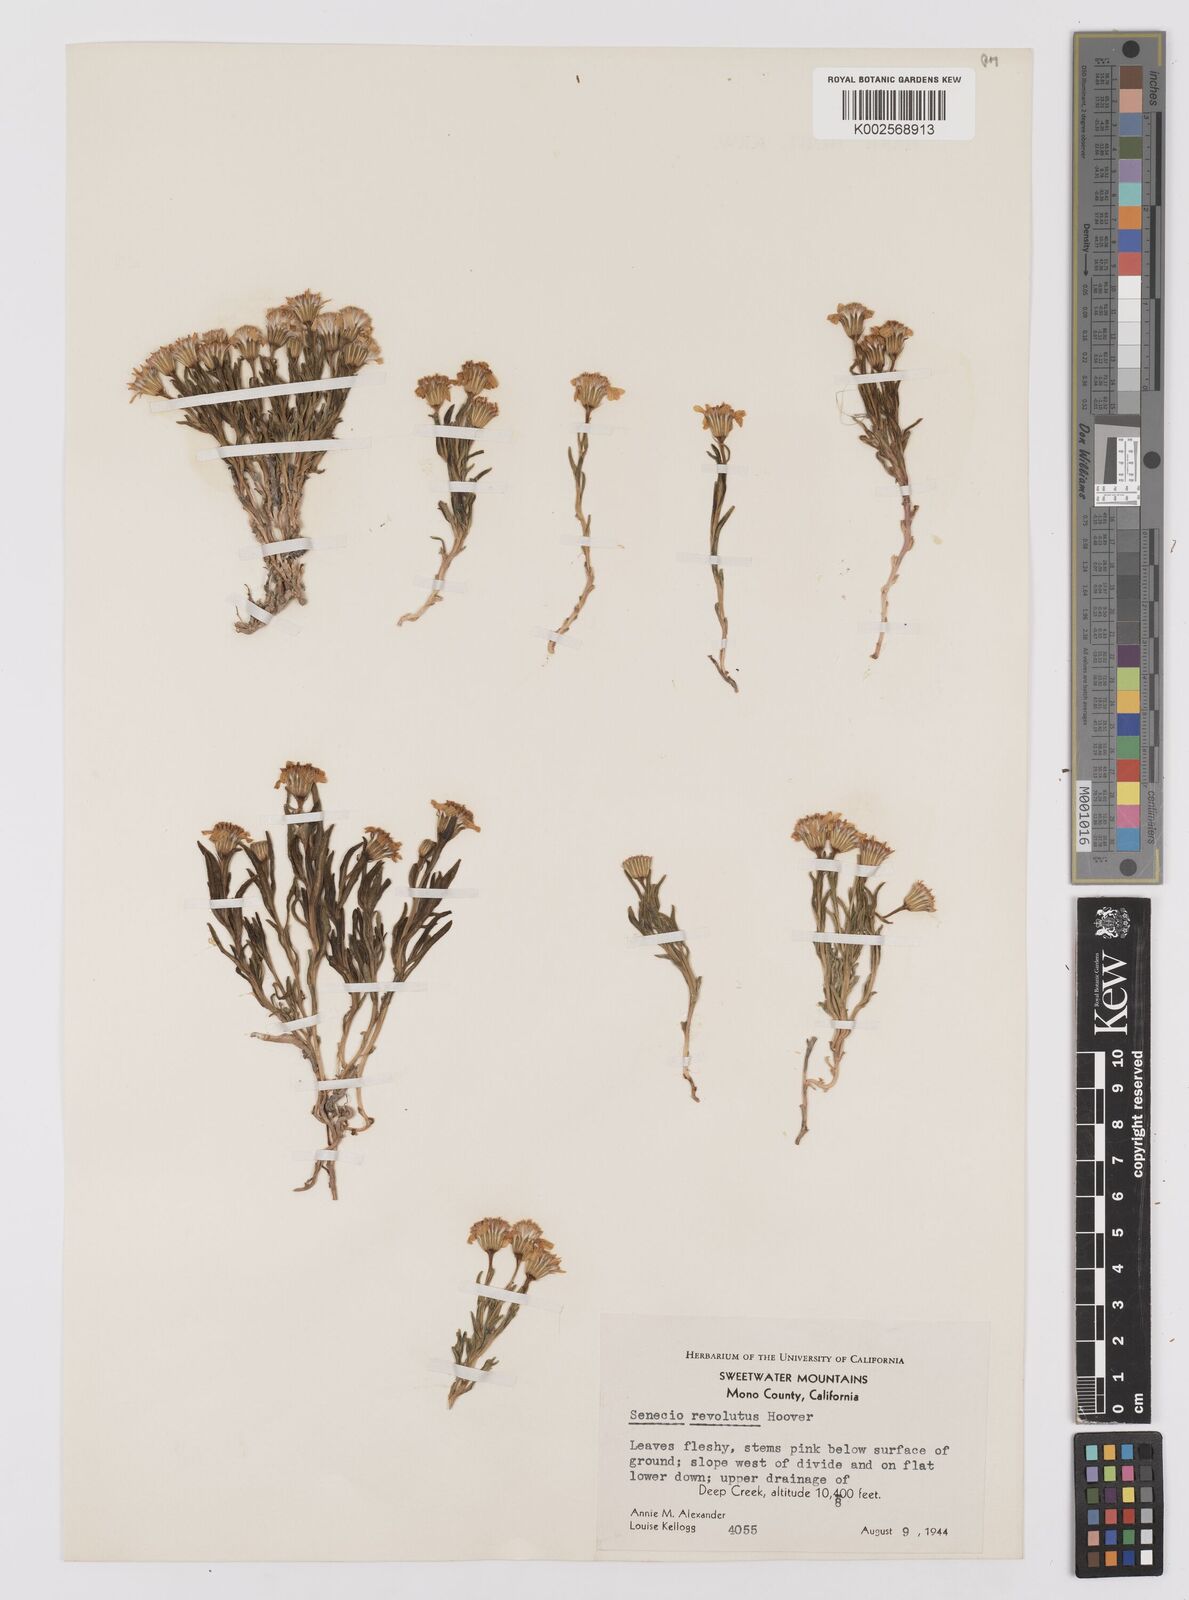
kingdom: Plantae
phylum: Tracheophyta
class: Magnoliopsida
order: Asterales
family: Asteraceae
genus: Senecio
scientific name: Senecio pattersonensis
